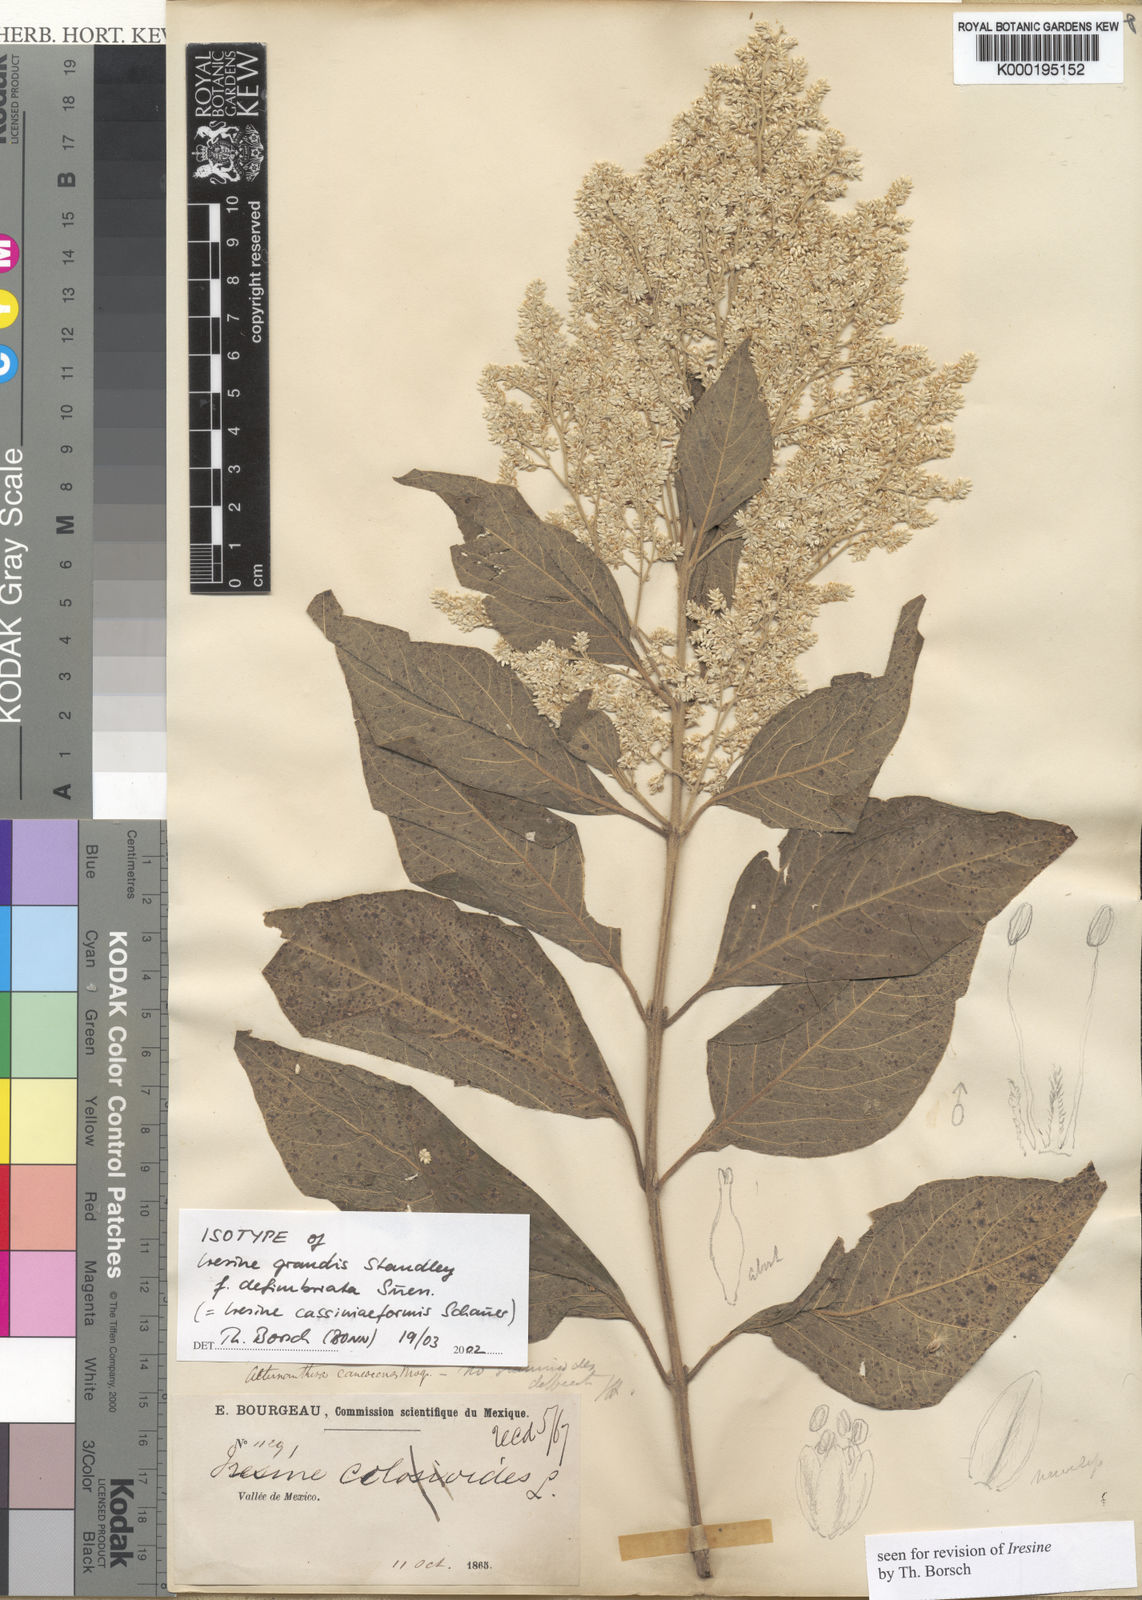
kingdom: Plantae
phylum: Tracheophyta
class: Magnoliopsida
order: Caryophyllales
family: Amaranthaceae
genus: Iresine
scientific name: Iresine cassiniiformis
